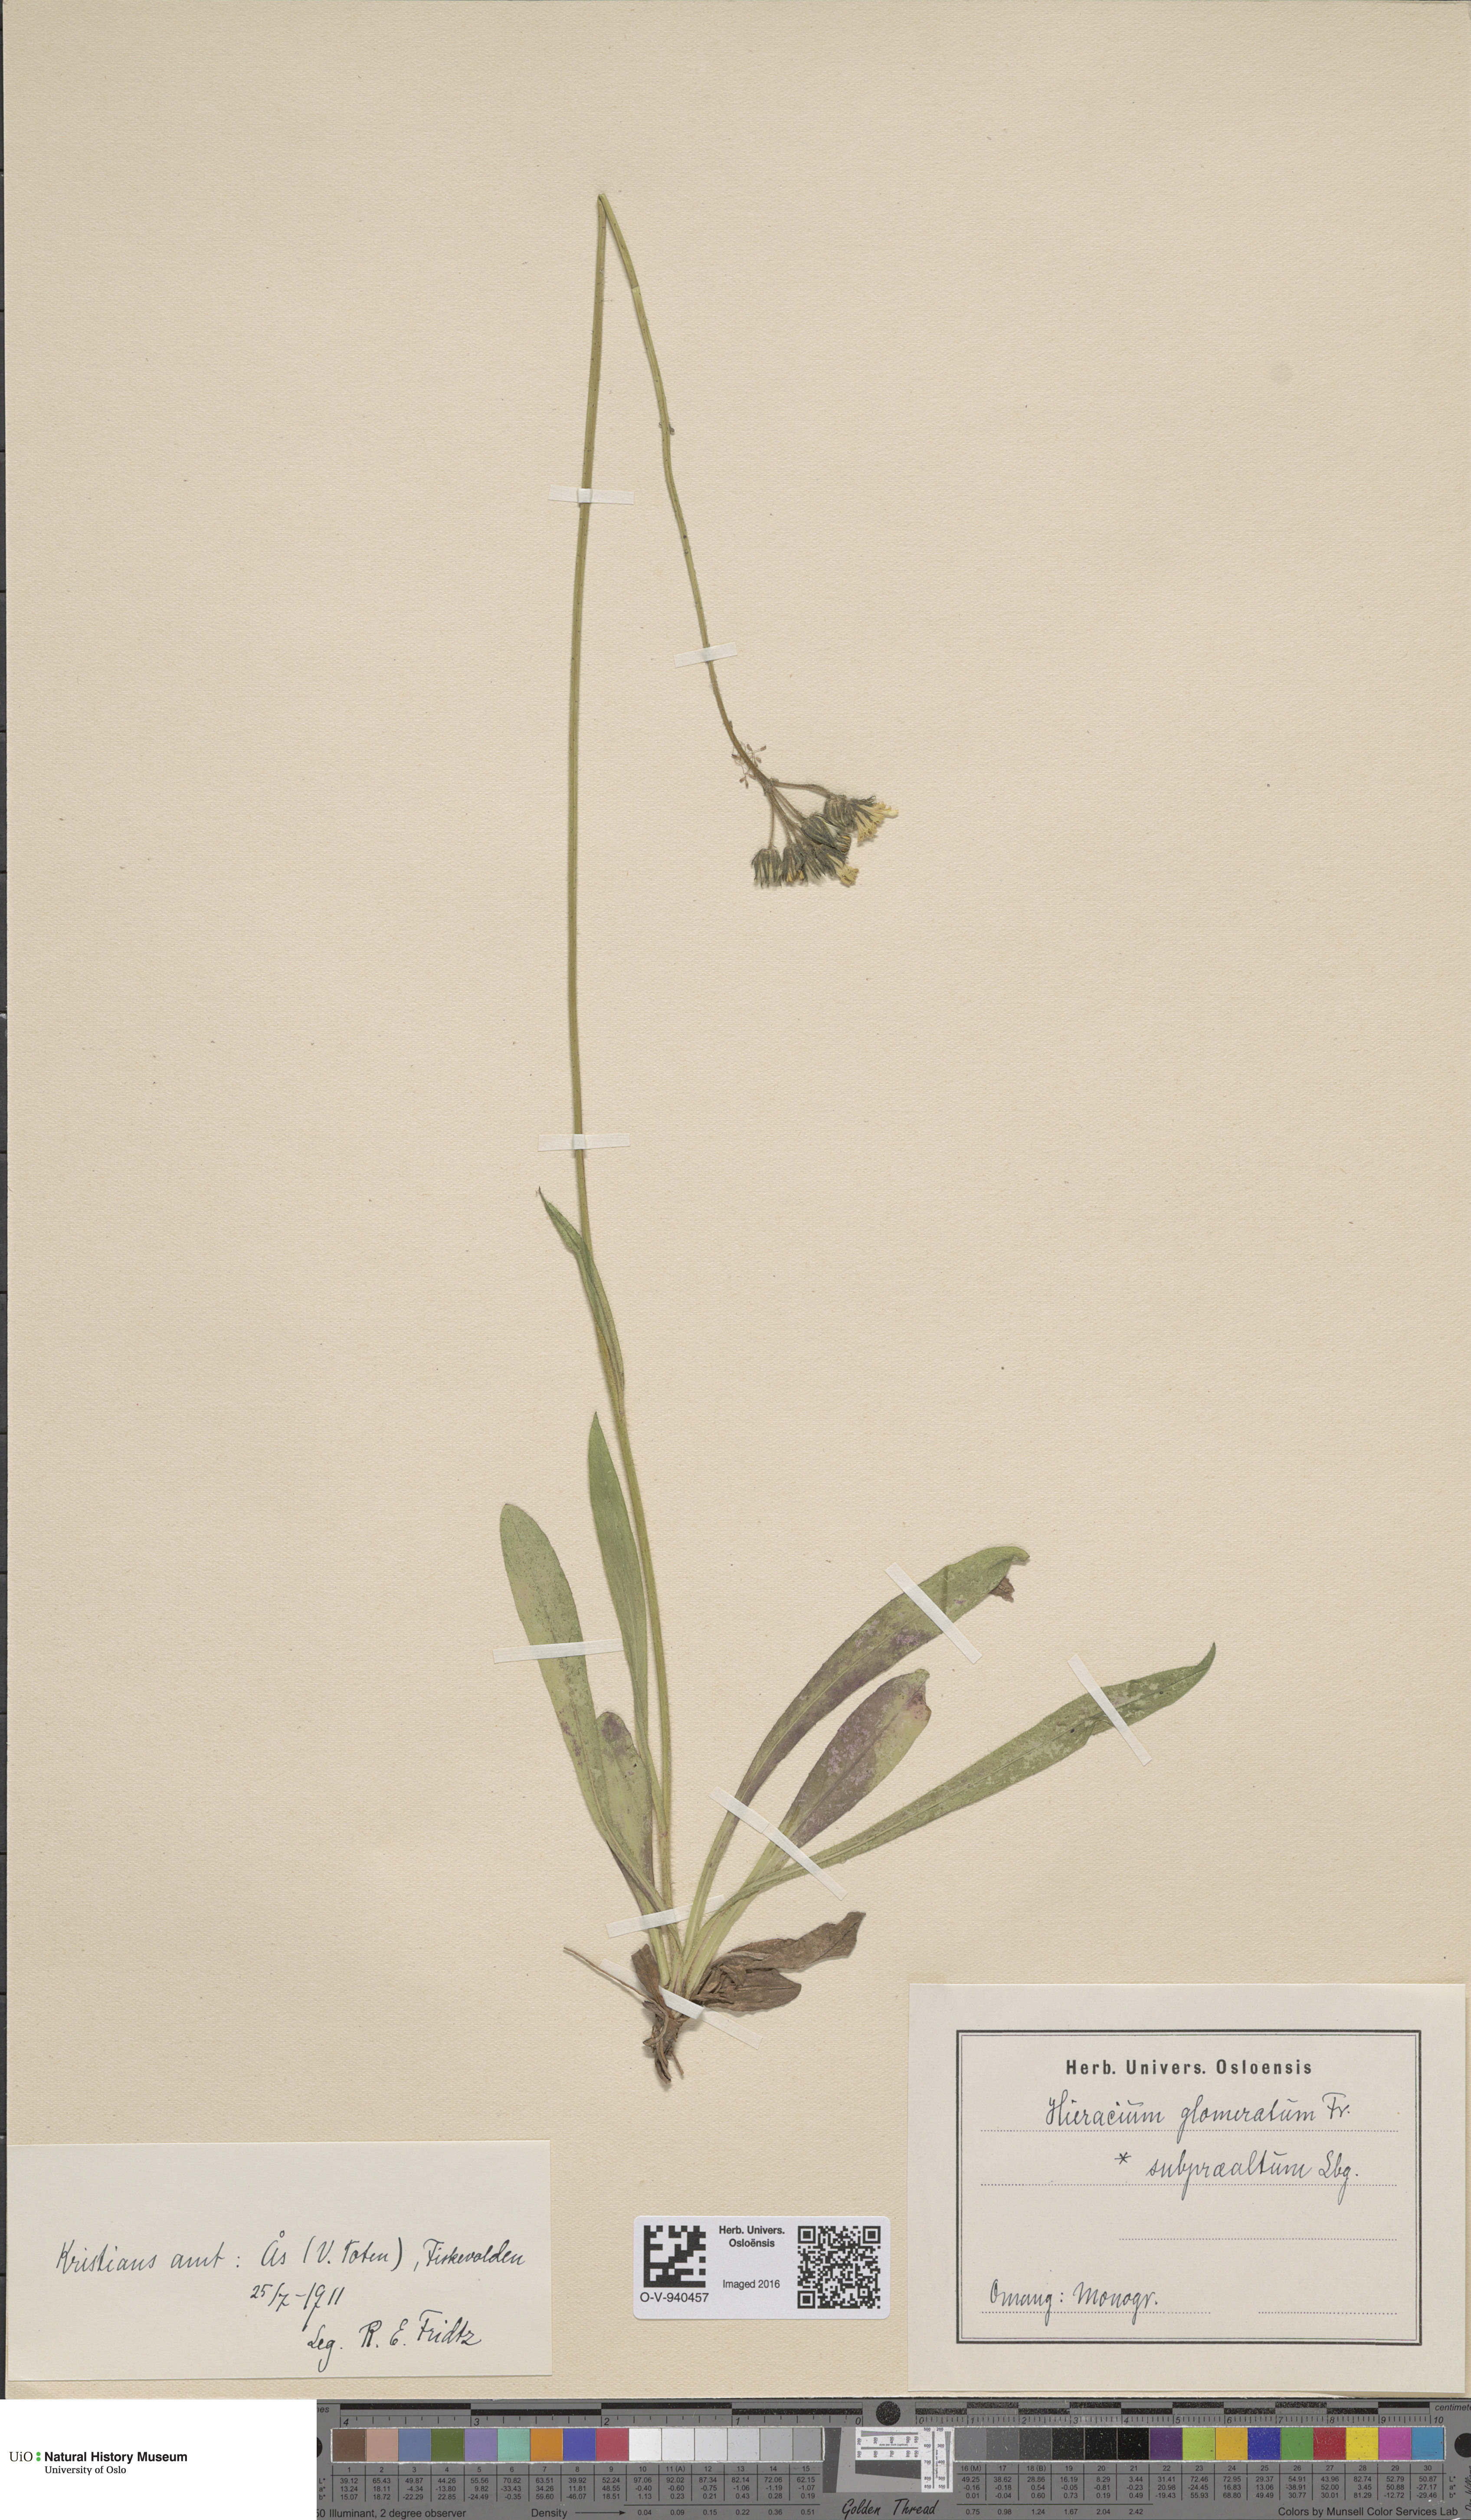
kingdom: Plantae
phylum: Tracheophyta
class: Magnoliopsida
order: Asterales
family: Asteraceae
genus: Pilosella
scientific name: Pilosella glomerata
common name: Queen devil hawkweed
